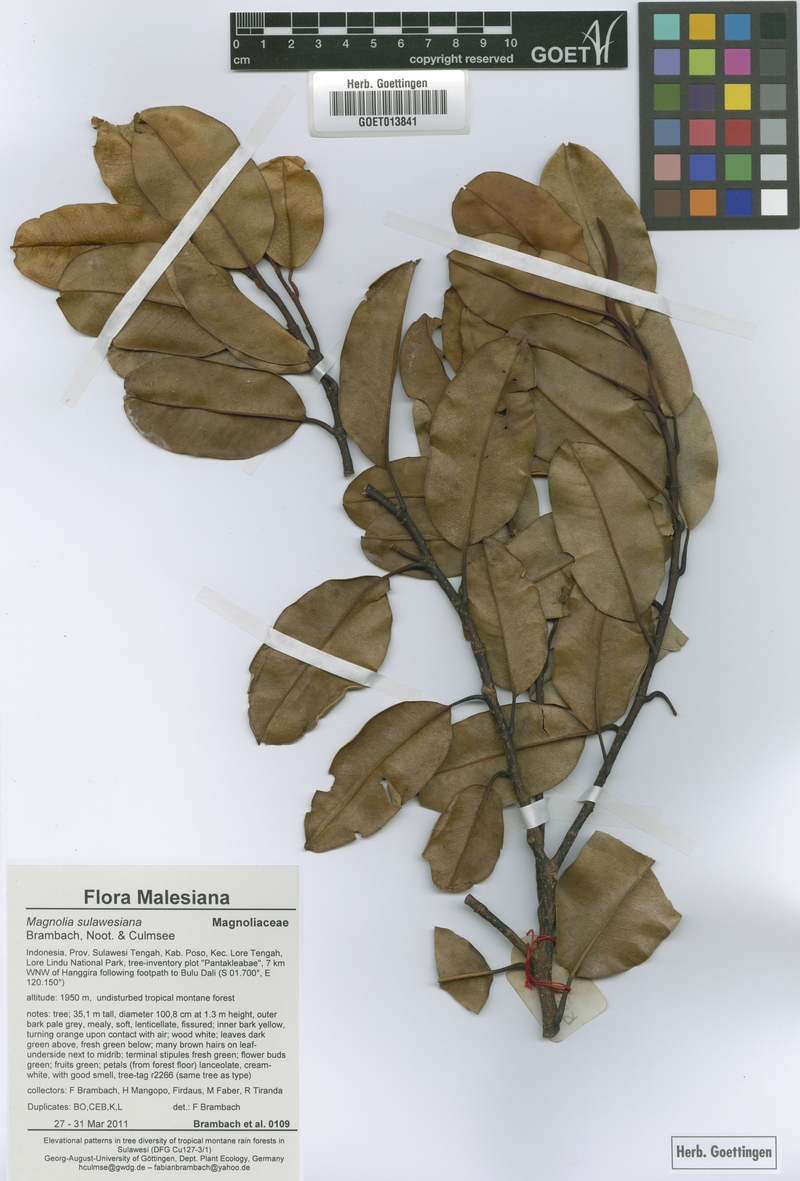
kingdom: Plantae
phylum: Tracheophyta
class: Magnoliopsida
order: Magnoliales
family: Magnoliaceae
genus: Magnolia
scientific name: Magnolia sulawesiana
